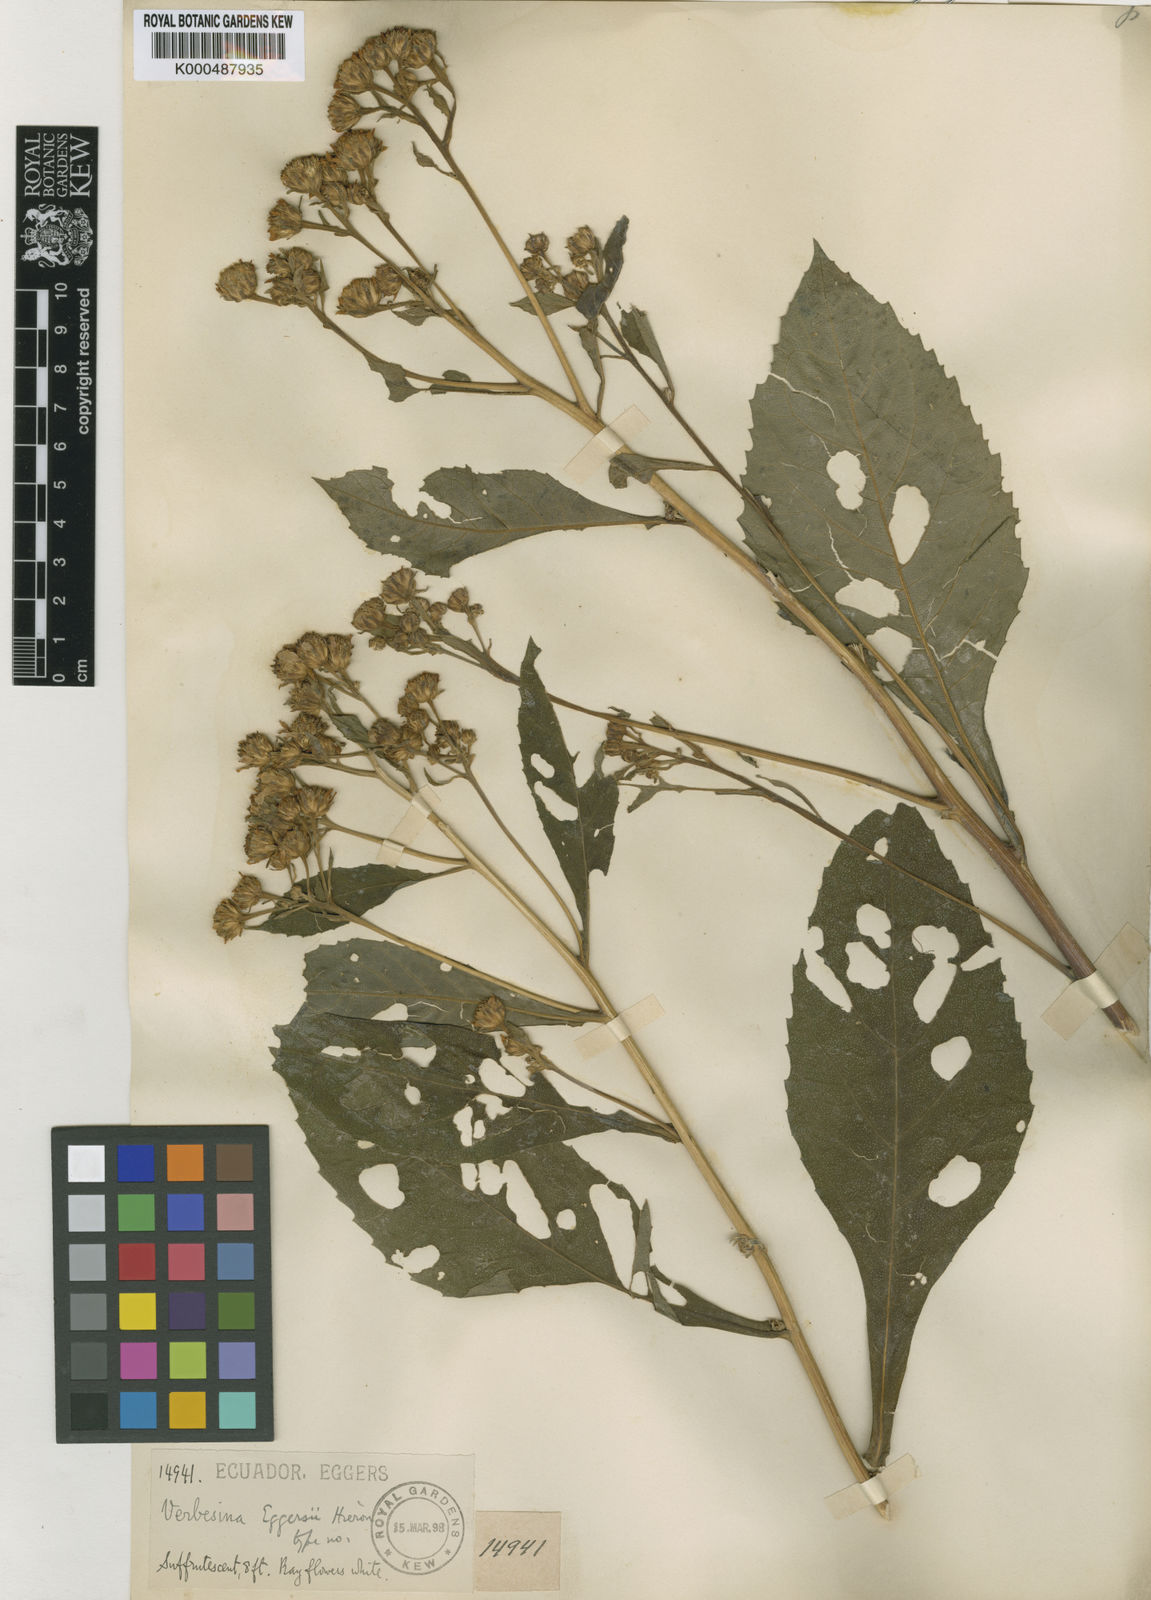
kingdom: Plantae
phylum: Tracheophyta
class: Magnoliopsida
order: Asterales
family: Asteraceae
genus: Verbesina
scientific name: Verbesina eggersii
